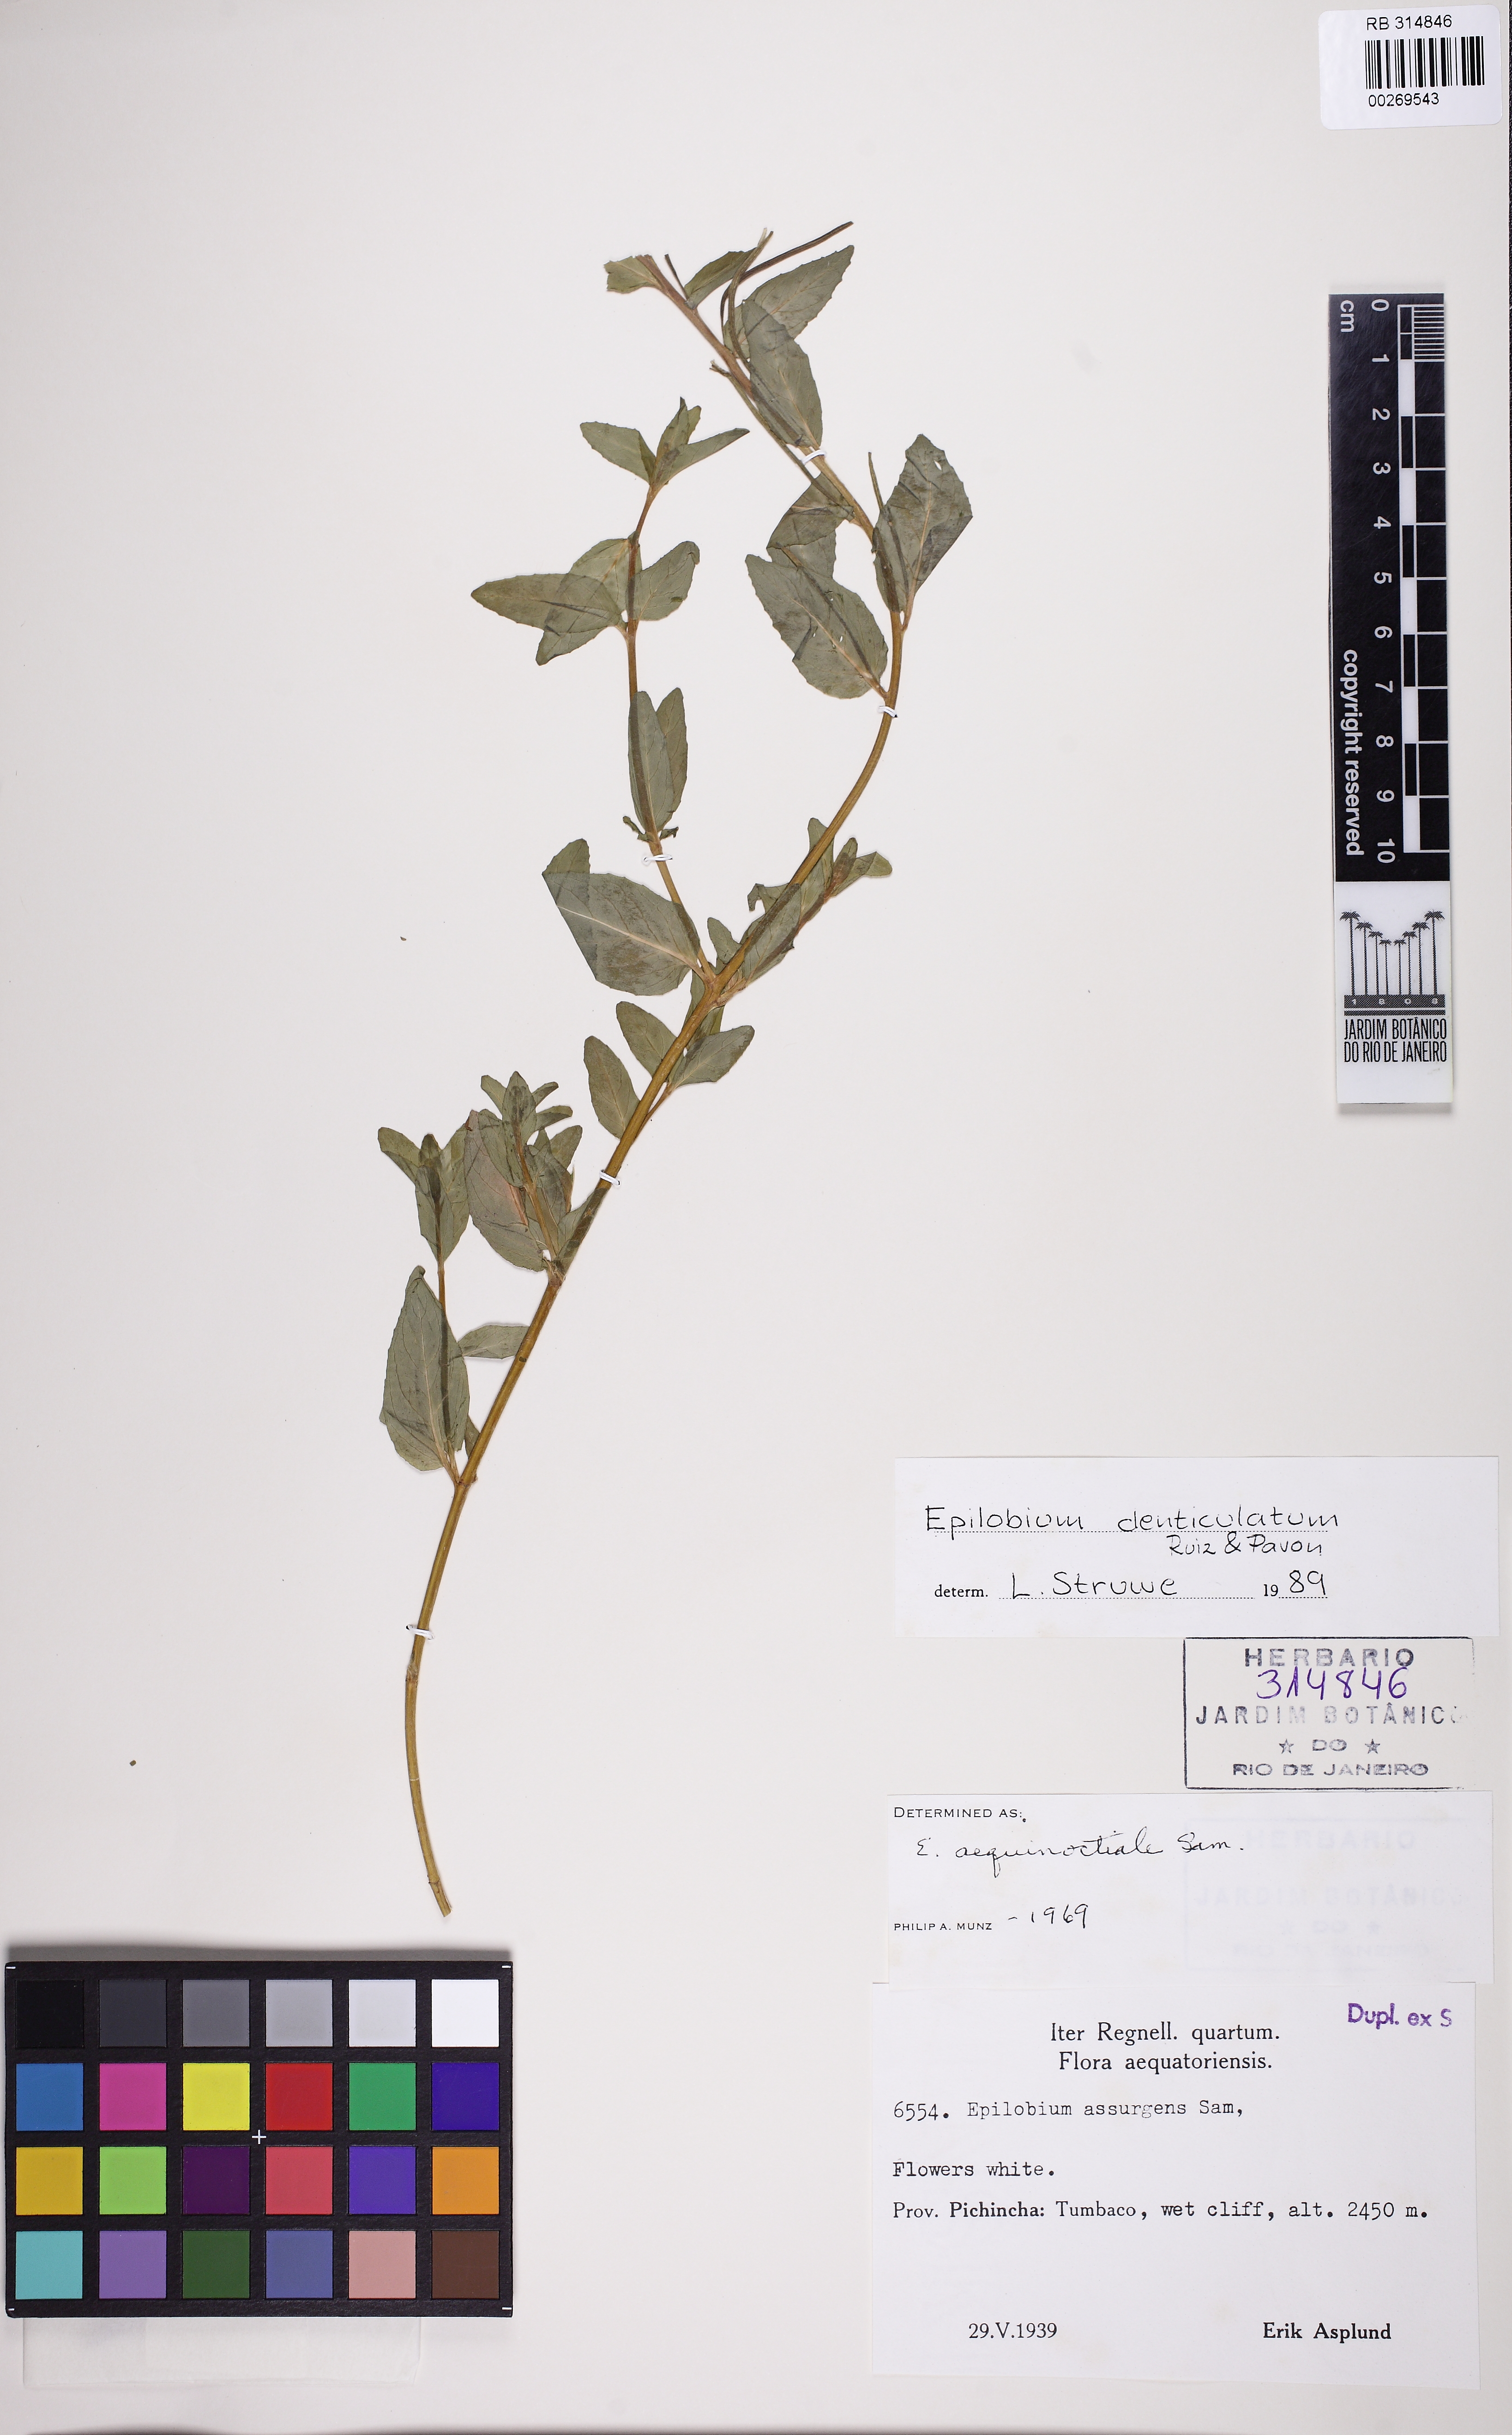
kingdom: Plantae
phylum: Tracheophyta
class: Magnoliopsida
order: Myrtales
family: Onagraceae
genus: Epilobium
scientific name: Epilobium denticulatum
